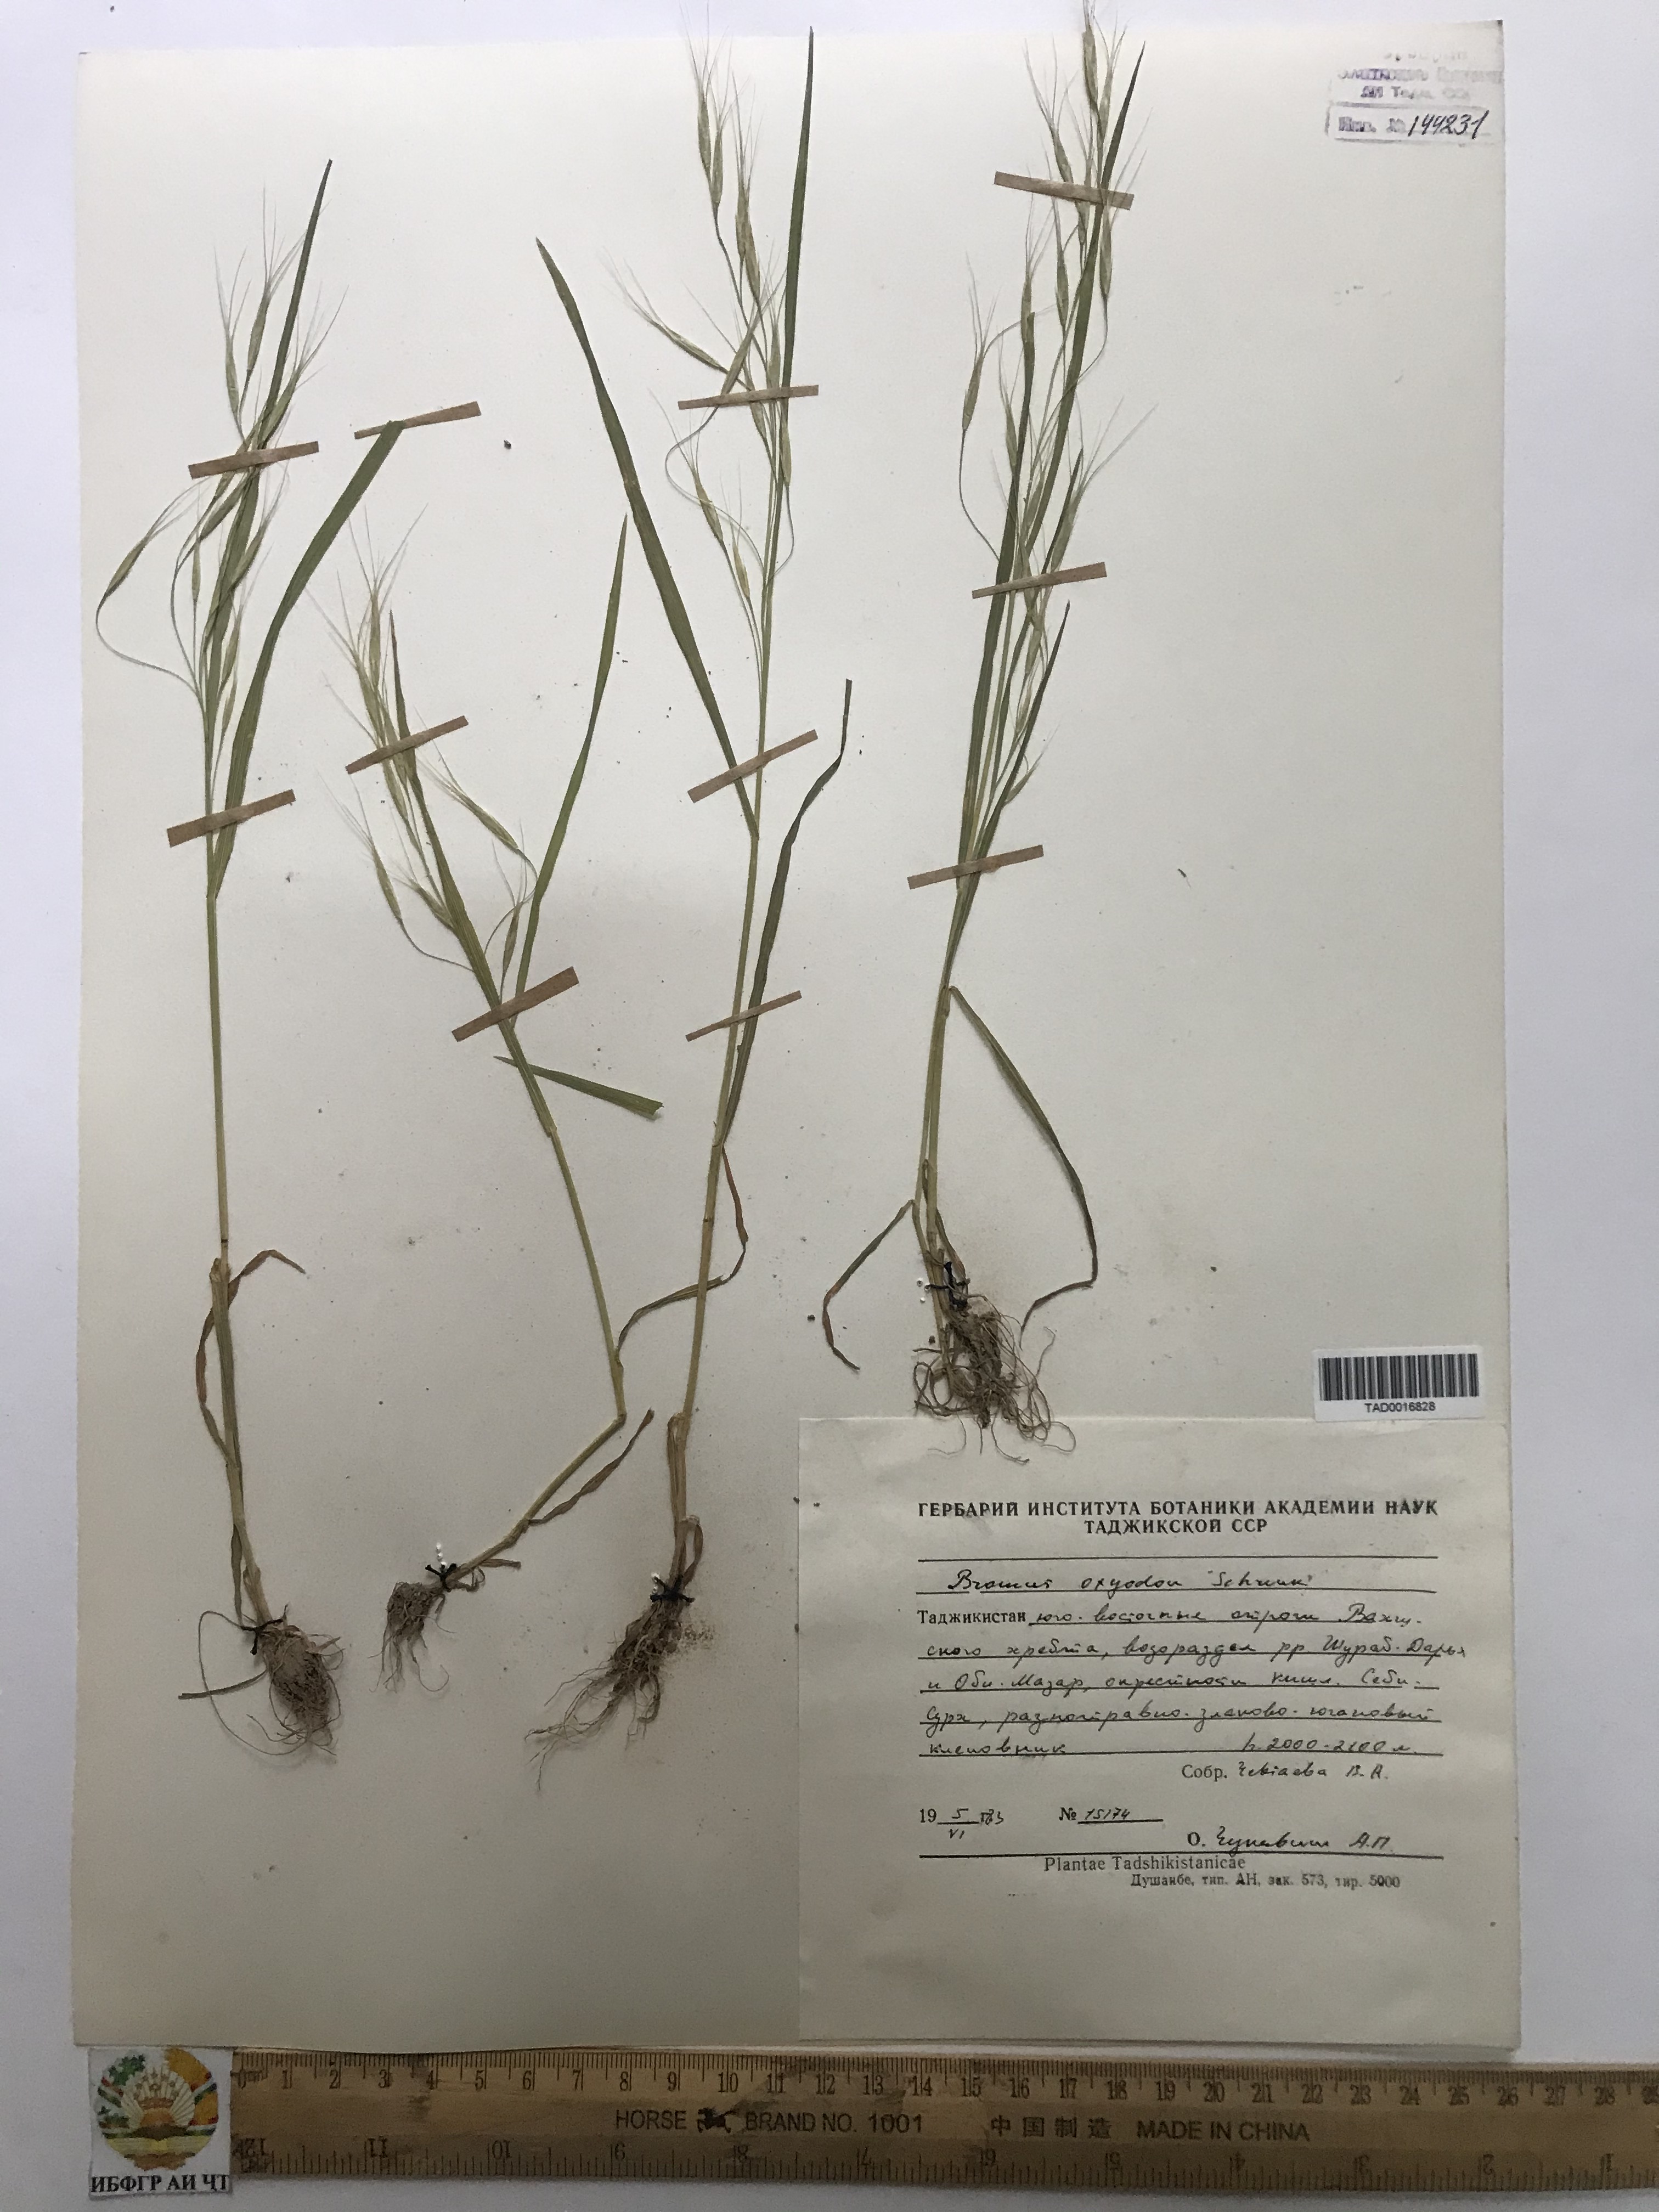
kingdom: Plantae
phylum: Tracheophyta
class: Liliopsida
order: Poales
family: Poaceae
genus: Bromus
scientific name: Bromus oxyodon
